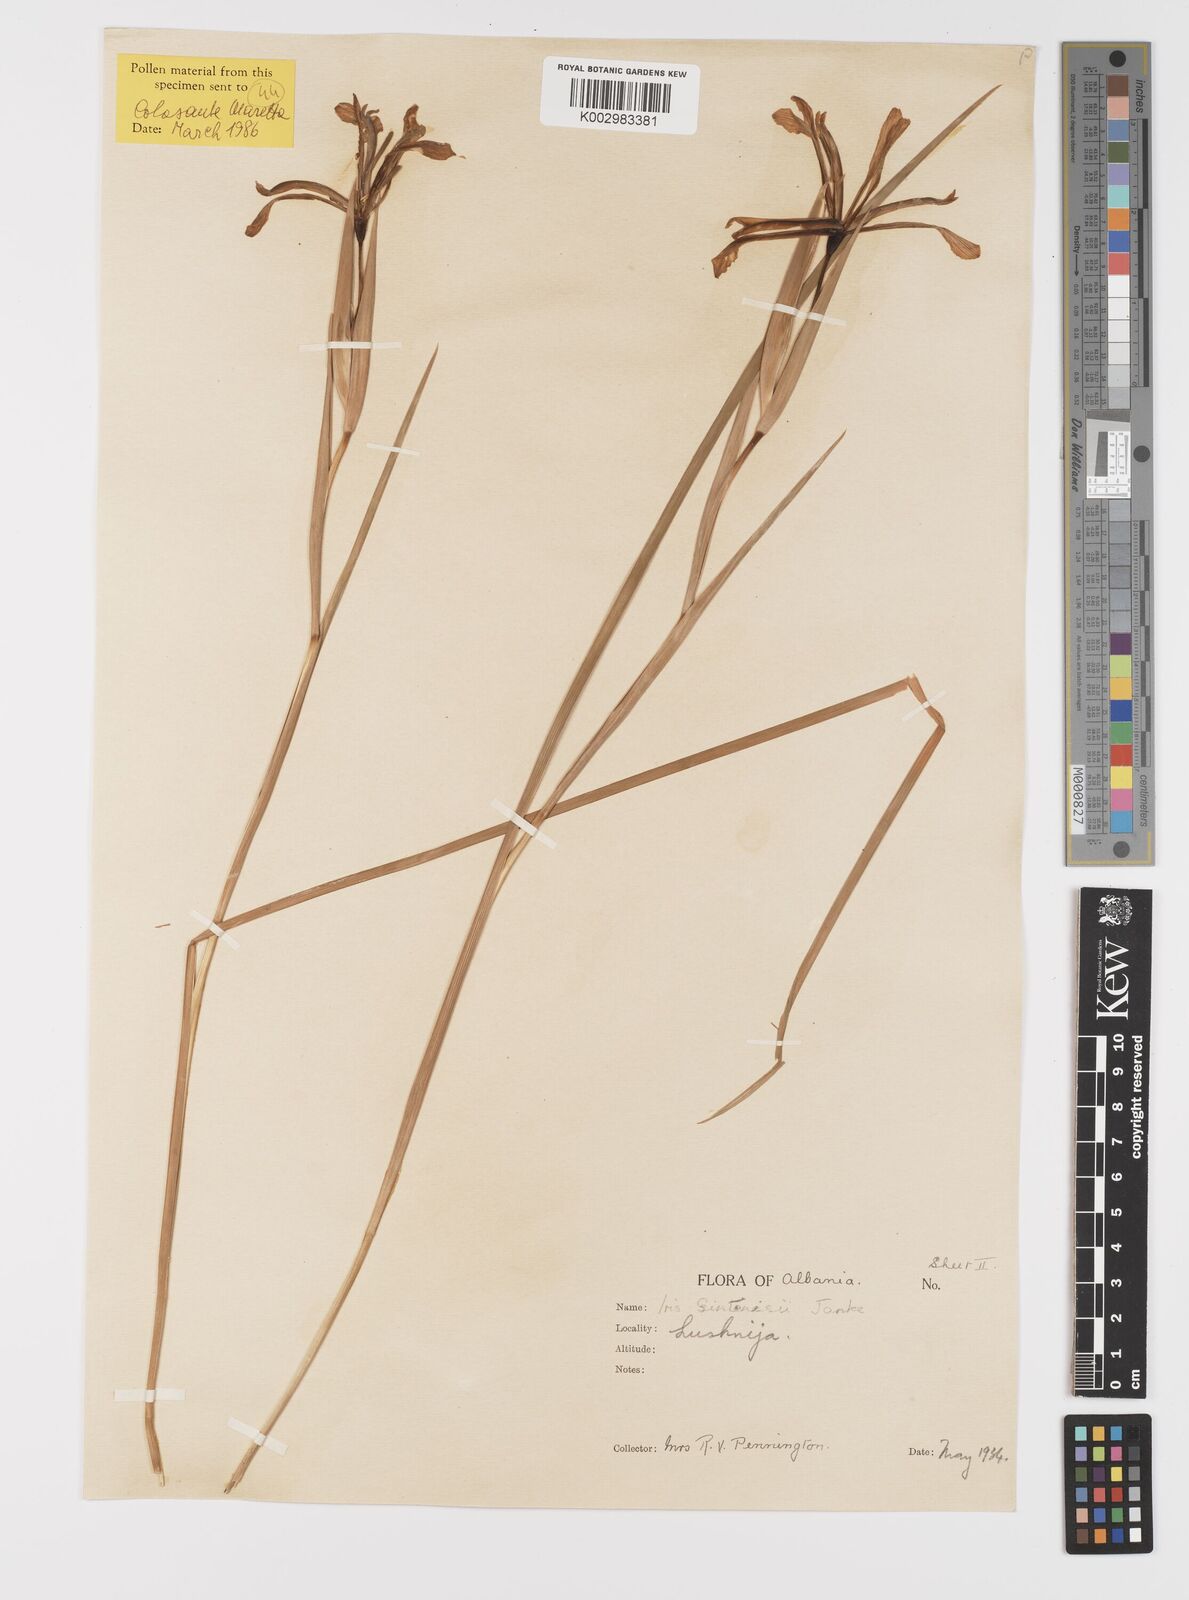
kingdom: Plantae
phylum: Tracheophyta
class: Liliopsida
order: Asparagales
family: Iridaceae
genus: Iris
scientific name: Iris sintenisii
